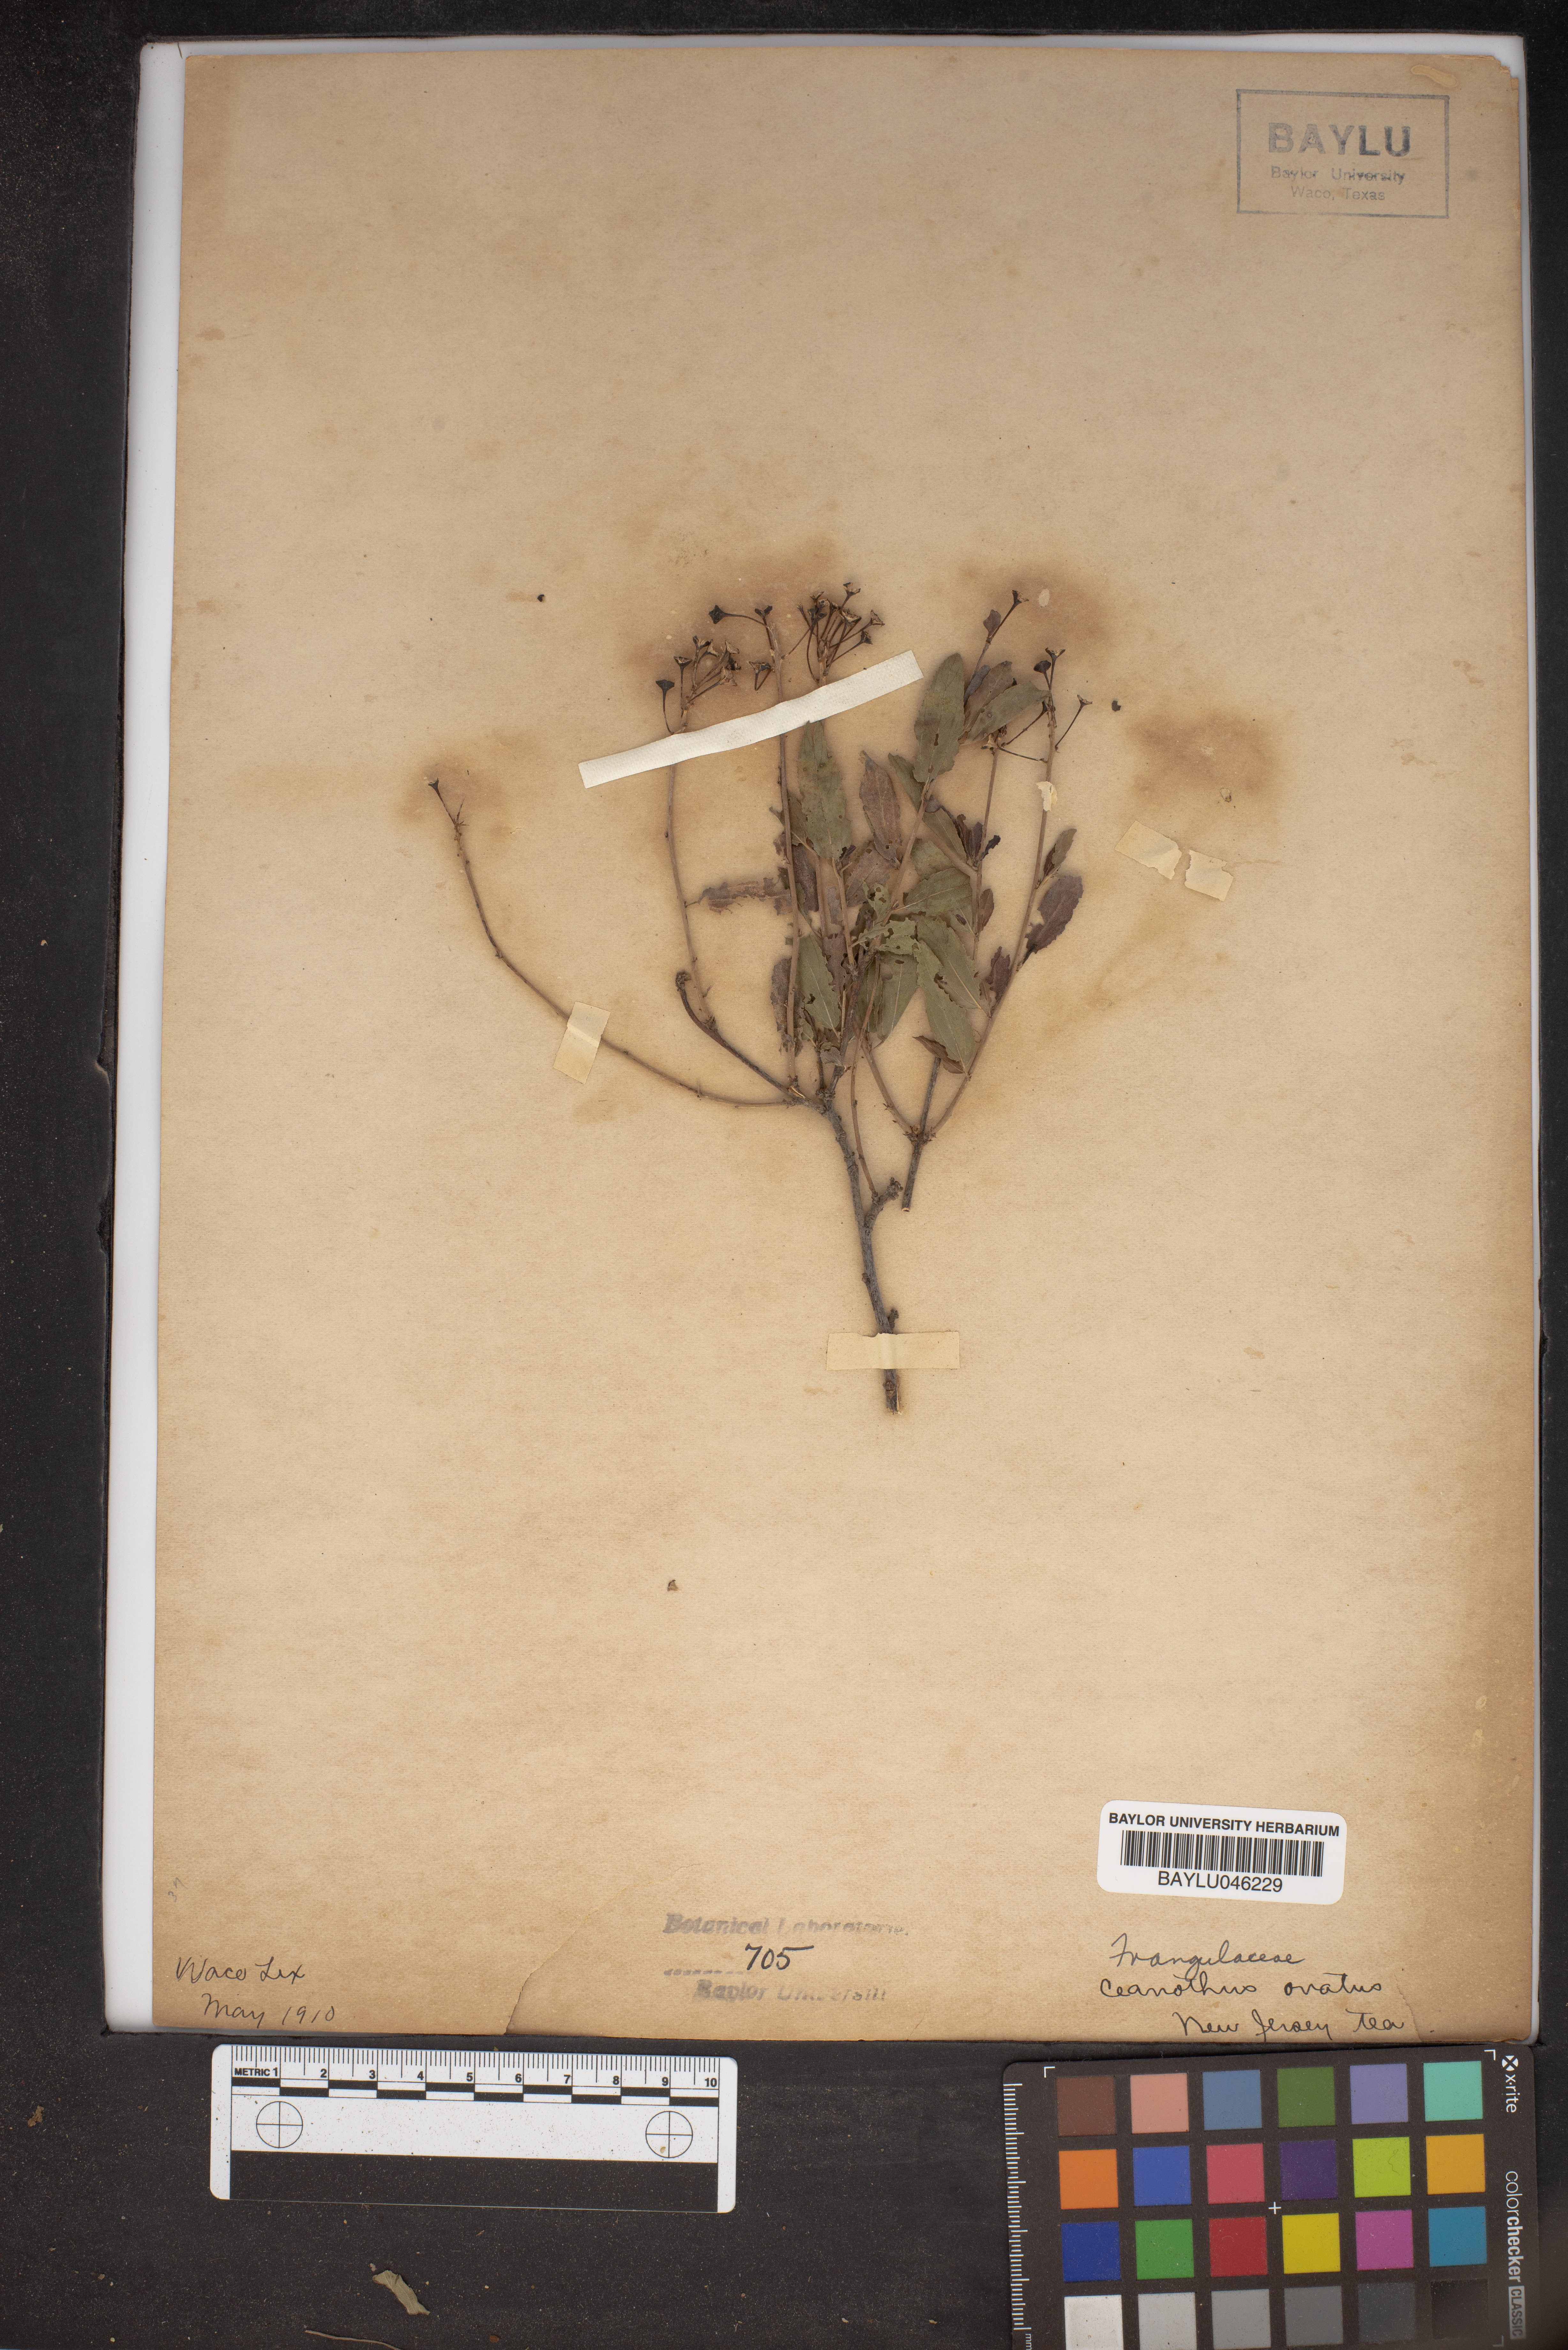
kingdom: Plantae
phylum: Tracheophyta
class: Magnoliopsida
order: Rosales
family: Rhamnaceae
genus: Ceanothus
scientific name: Ceanothus herbaceus
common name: Inland ceanothus
